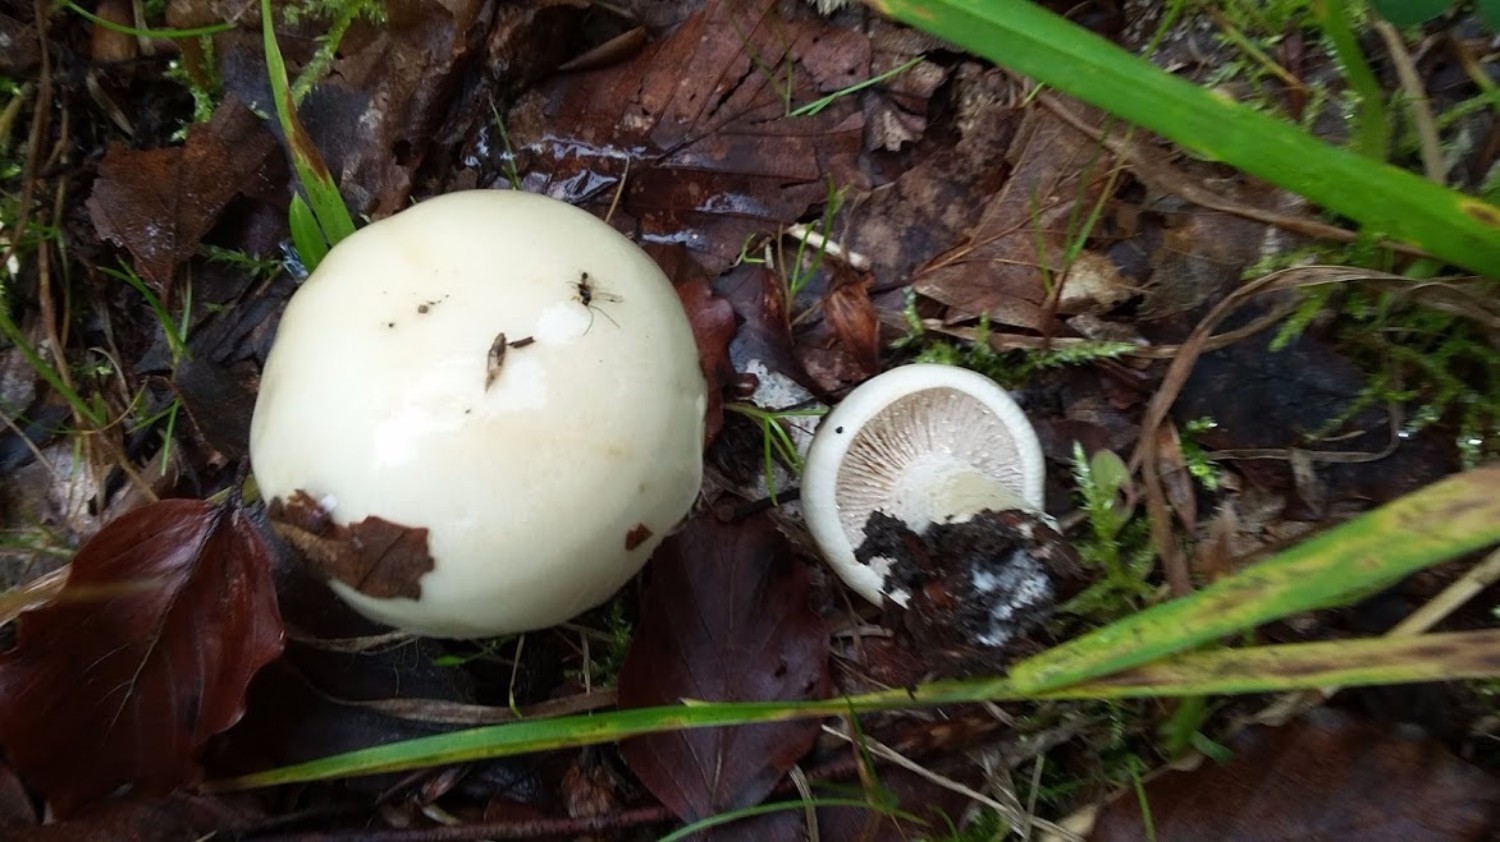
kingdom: Fungi
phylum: Basidiomycota
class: Agaricomycetes
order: Agaricales
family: Hymenogastraceae
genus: Hebeloma
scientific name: Hebeloma
